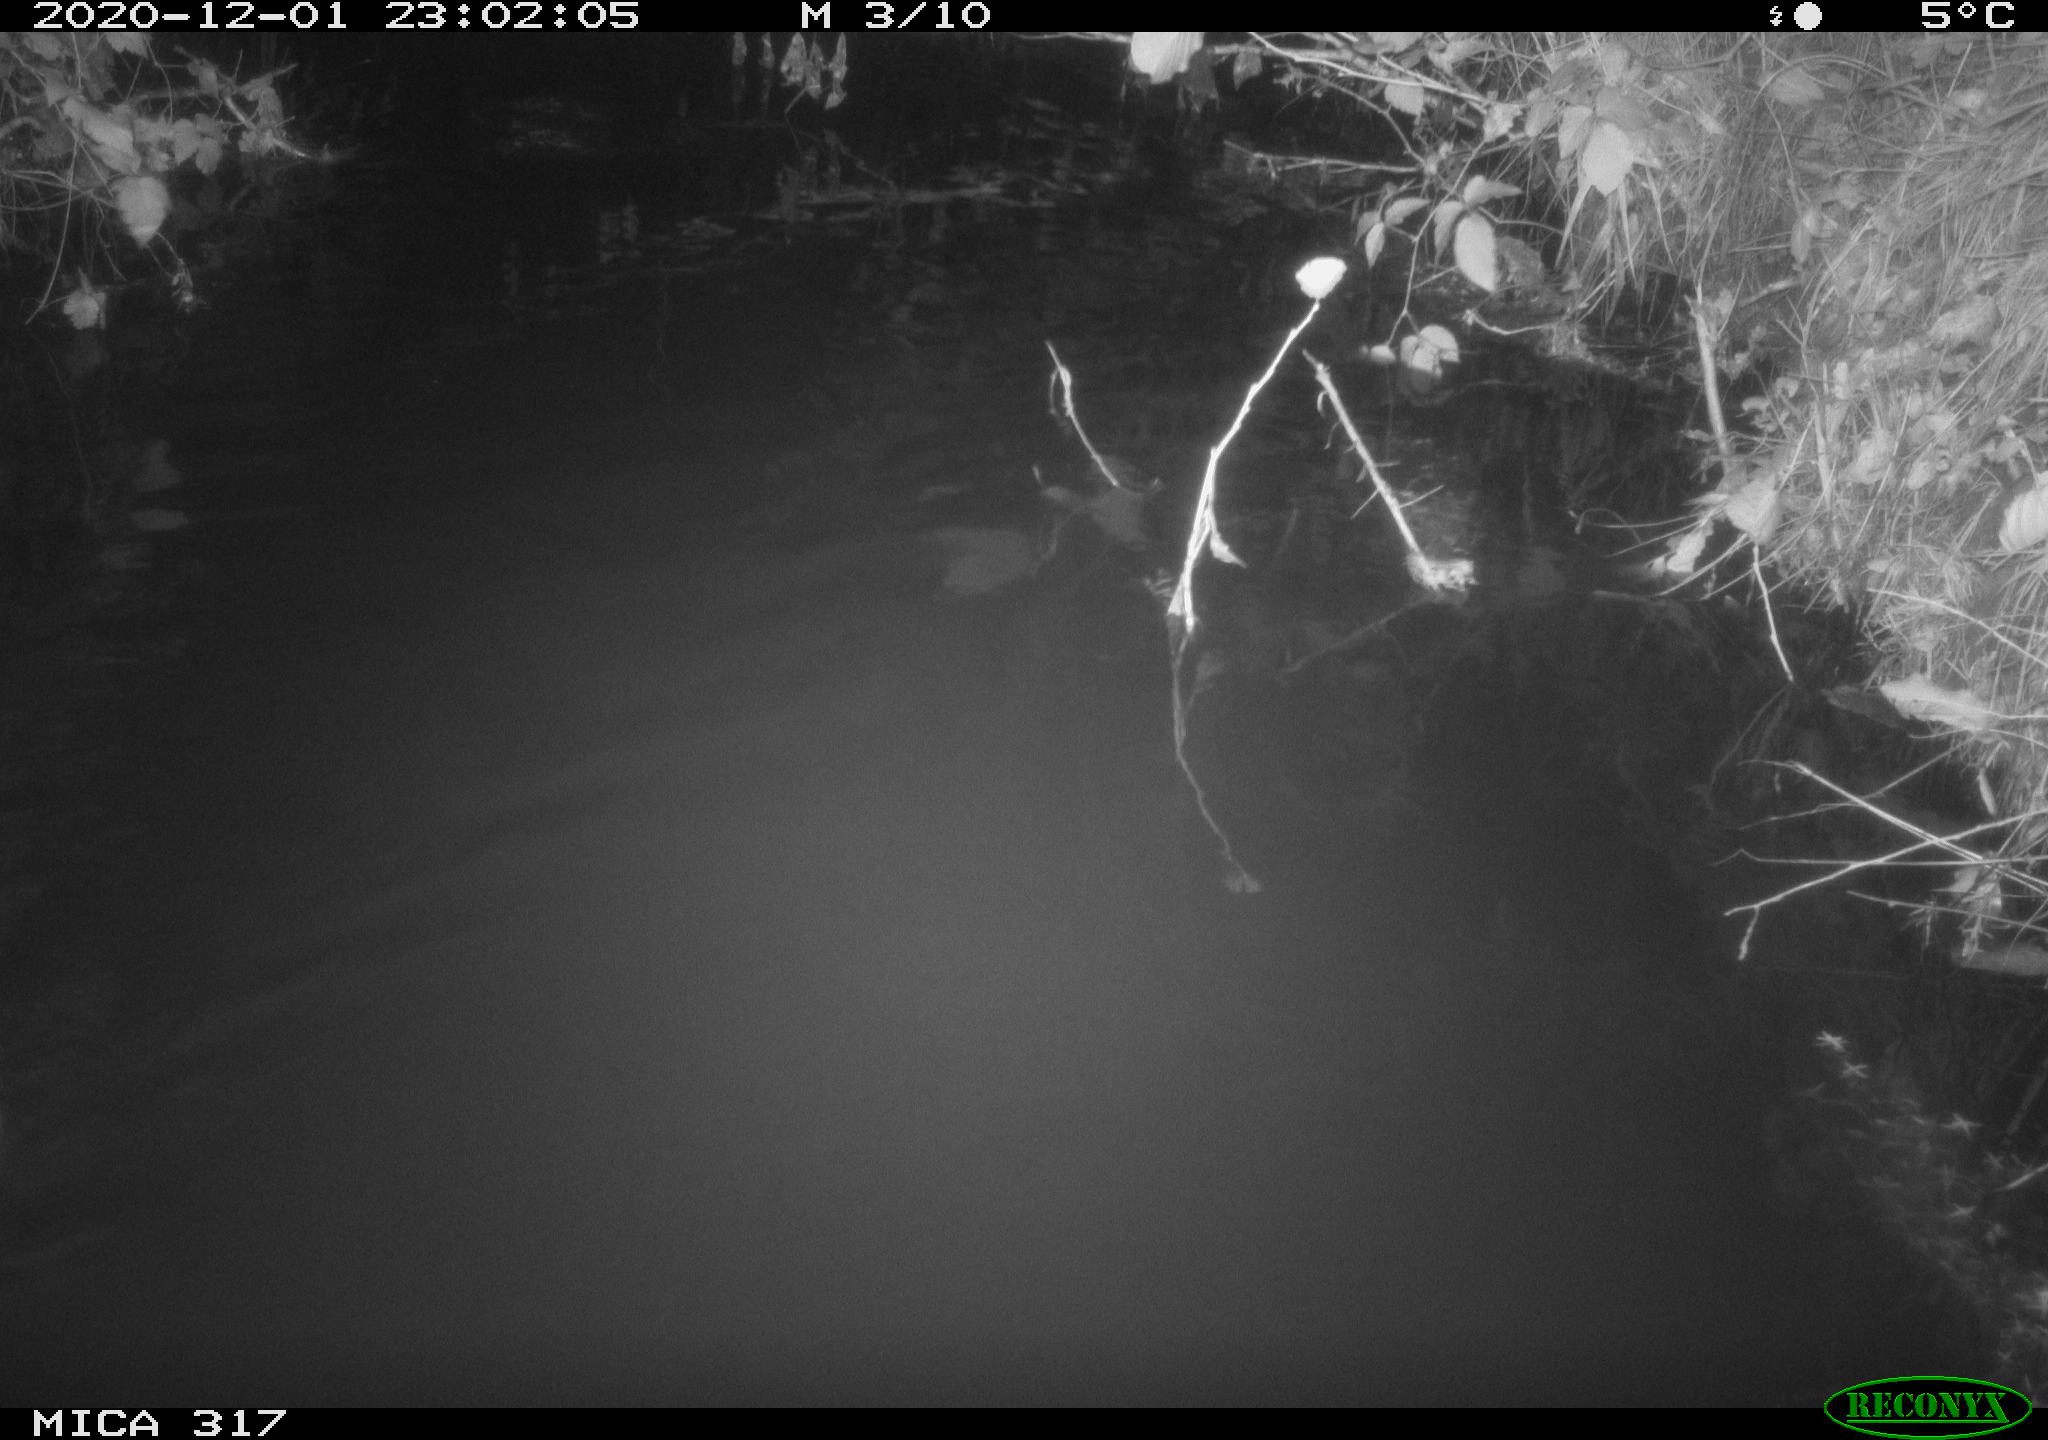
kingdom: Animalia
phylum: Chordata
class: Mammalia
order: Rodentia
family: Muridae
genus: Rattus
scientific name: Rattus norvegicus
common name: Brown rat
